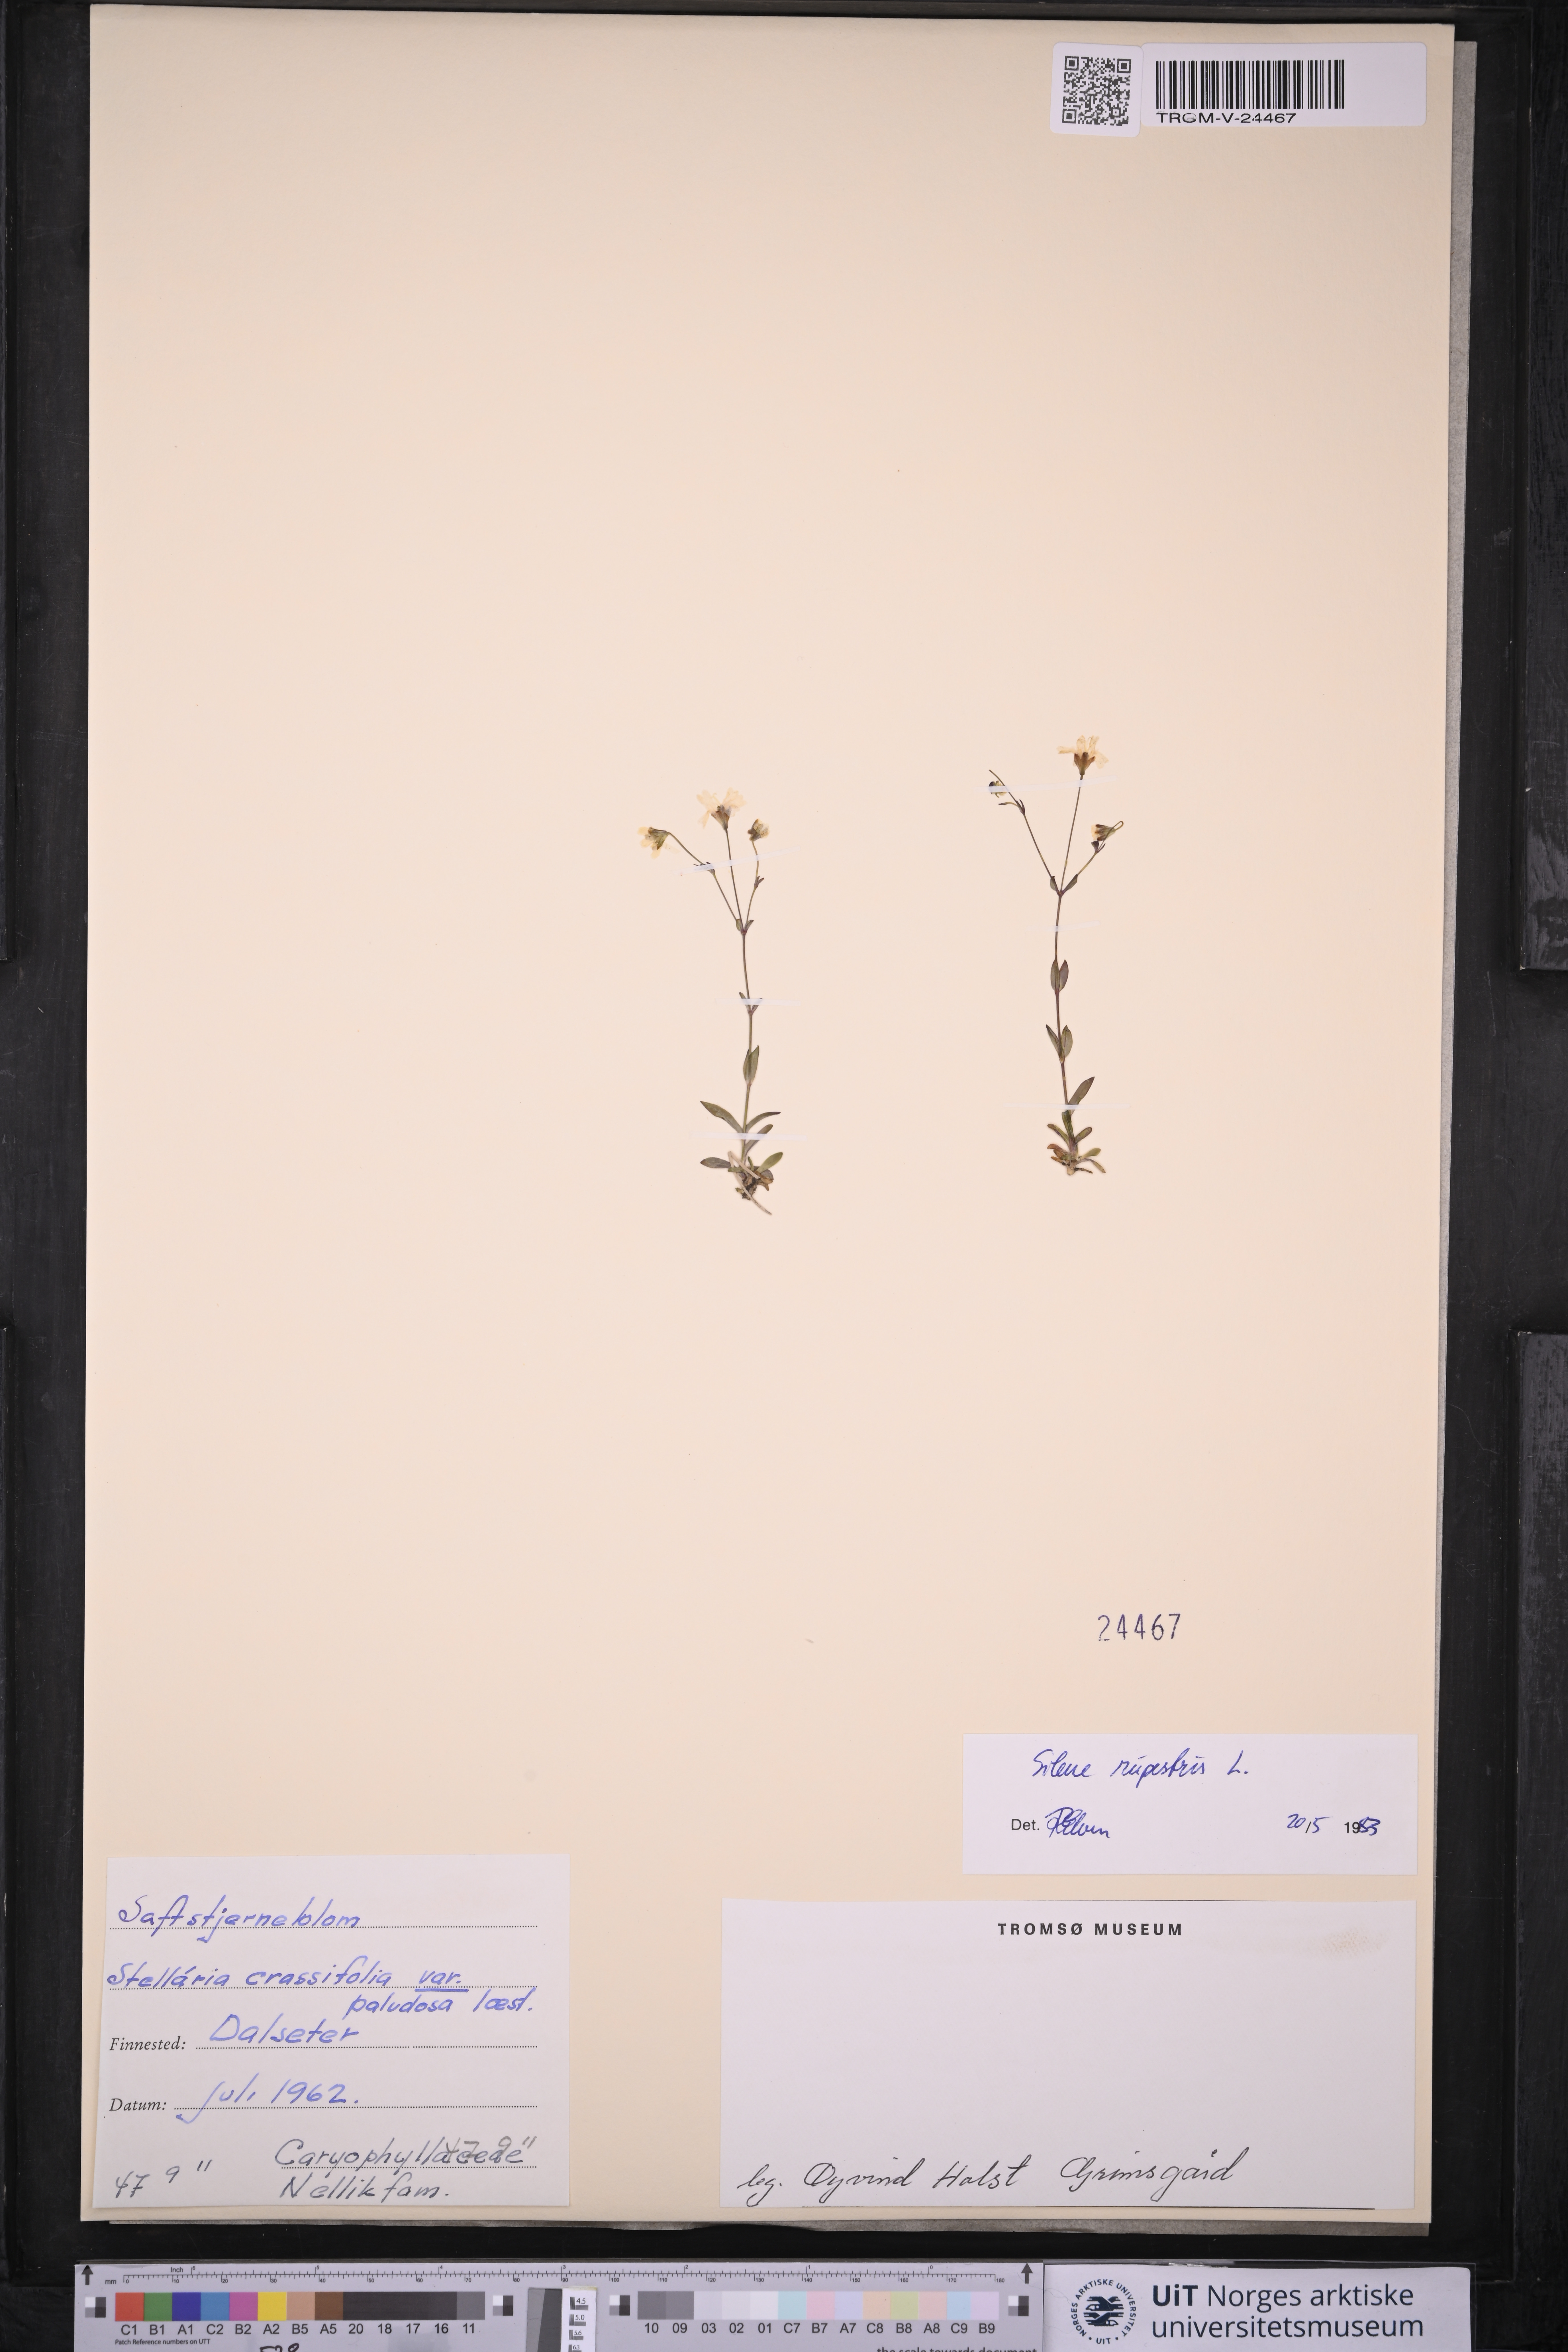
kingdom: Plantae
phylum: Tracheophyta
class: Magnoliopsida
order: Caryophyllales
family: Caryophyllaceae
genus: Atocion
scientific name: Atocion rupestre
